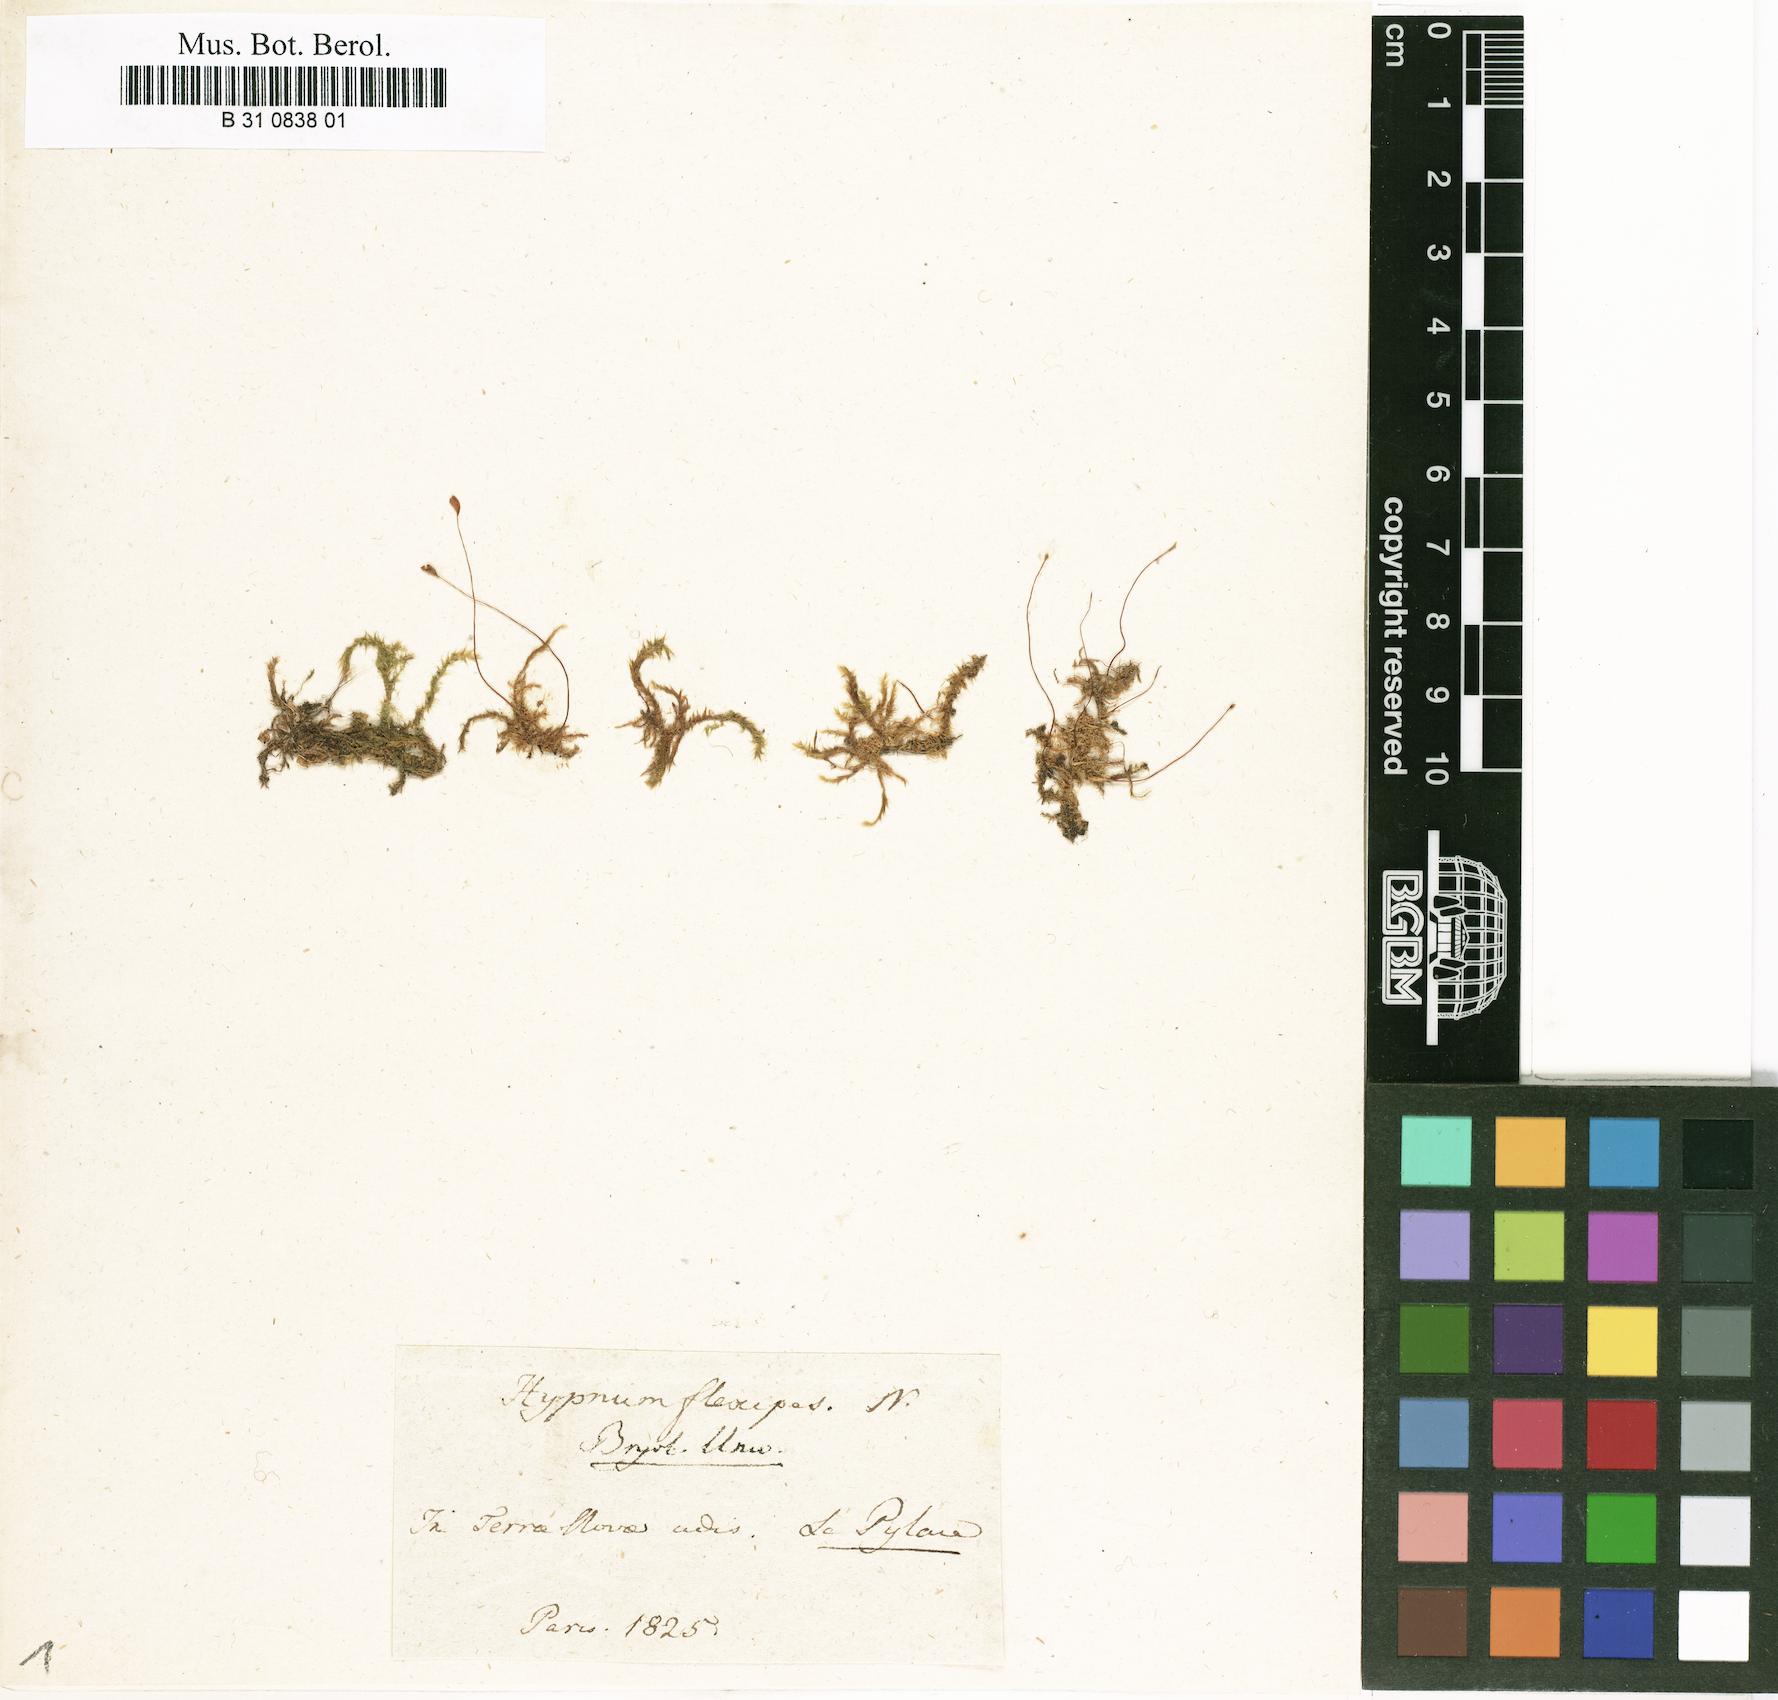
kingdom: Plantae
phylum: Bryophyta
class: Bryopsida
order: Hypnales
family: Amblystegiaceae
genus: Leptodictyum
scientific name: Leptodictyum riparium
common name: Riparian feather moss
